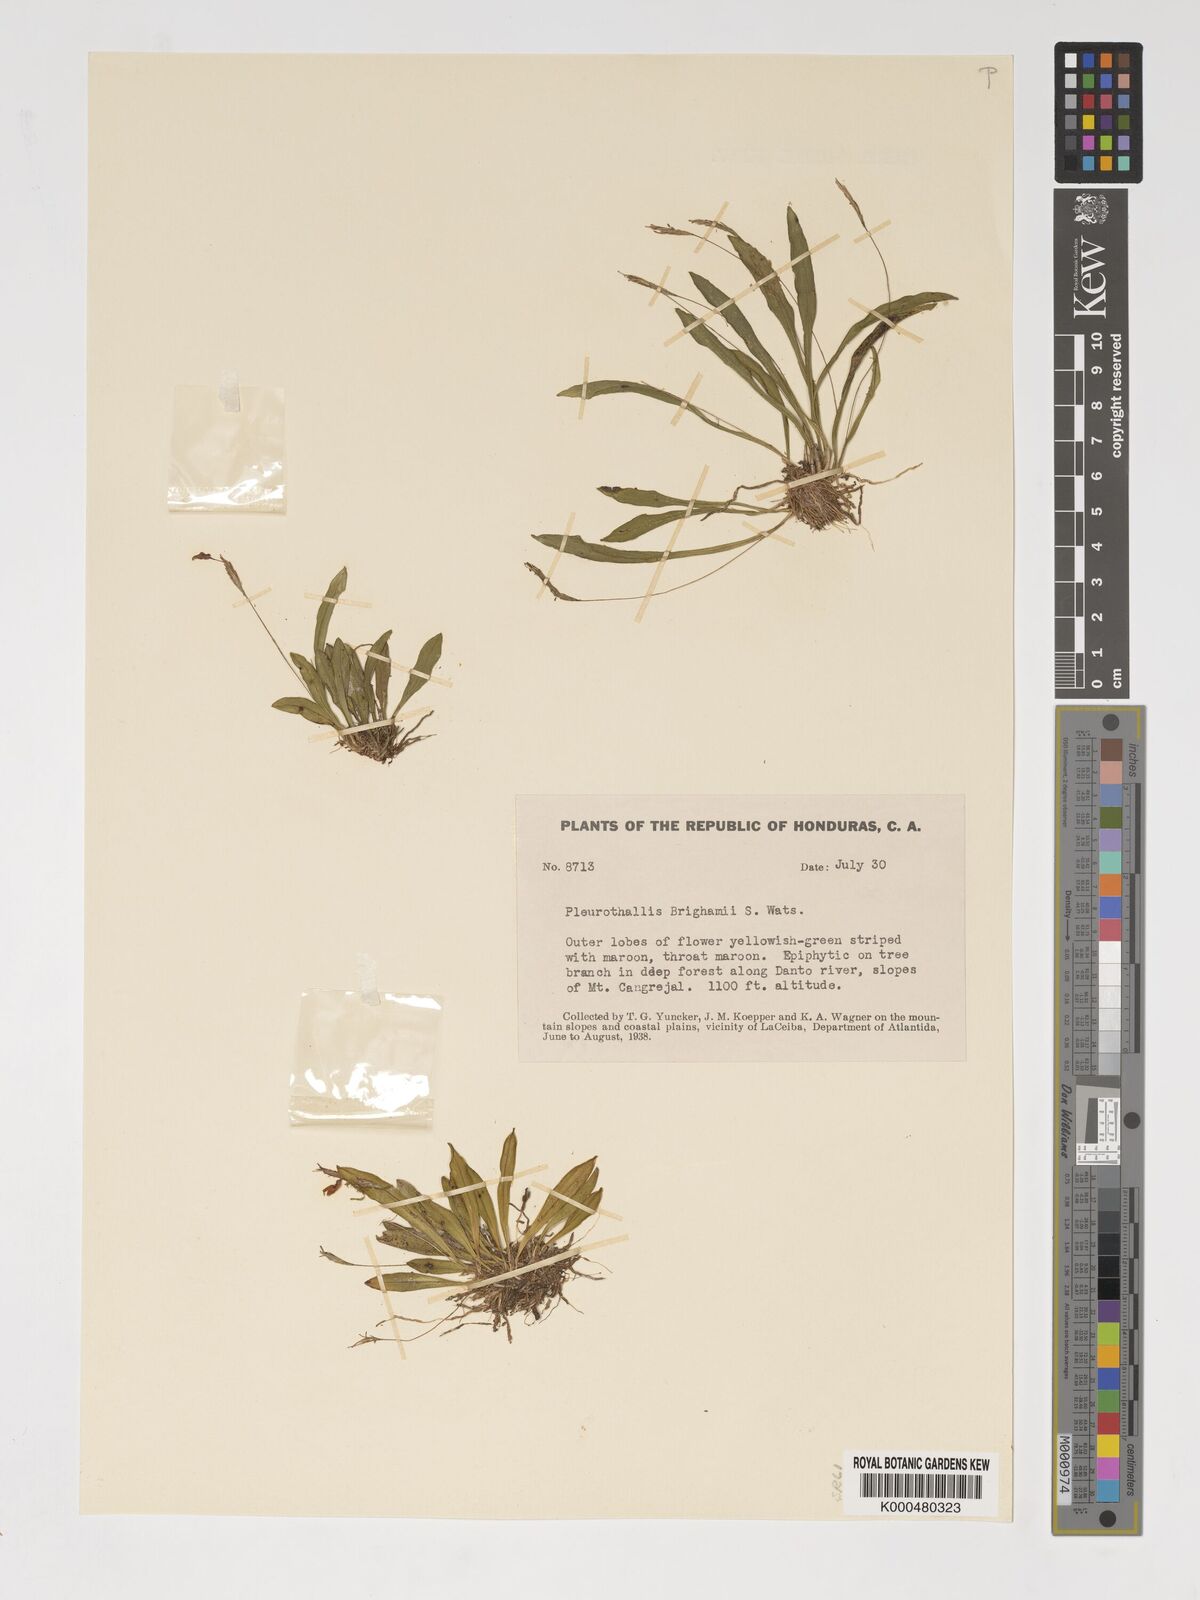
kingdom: Plantae
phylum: Tracheophyta
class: Liliopsida
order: Asparagales
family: Orchidaceae
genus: Specklinia
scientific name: Specklinia
